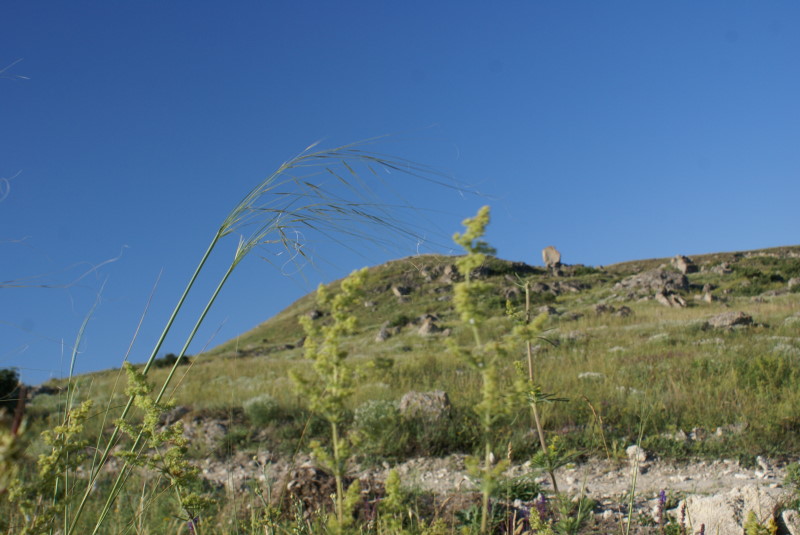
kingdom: Plantae
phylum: Tracheophyta
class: Liliopsida
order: Poales
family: Poaceae
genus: Stipa
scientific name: Stipa
